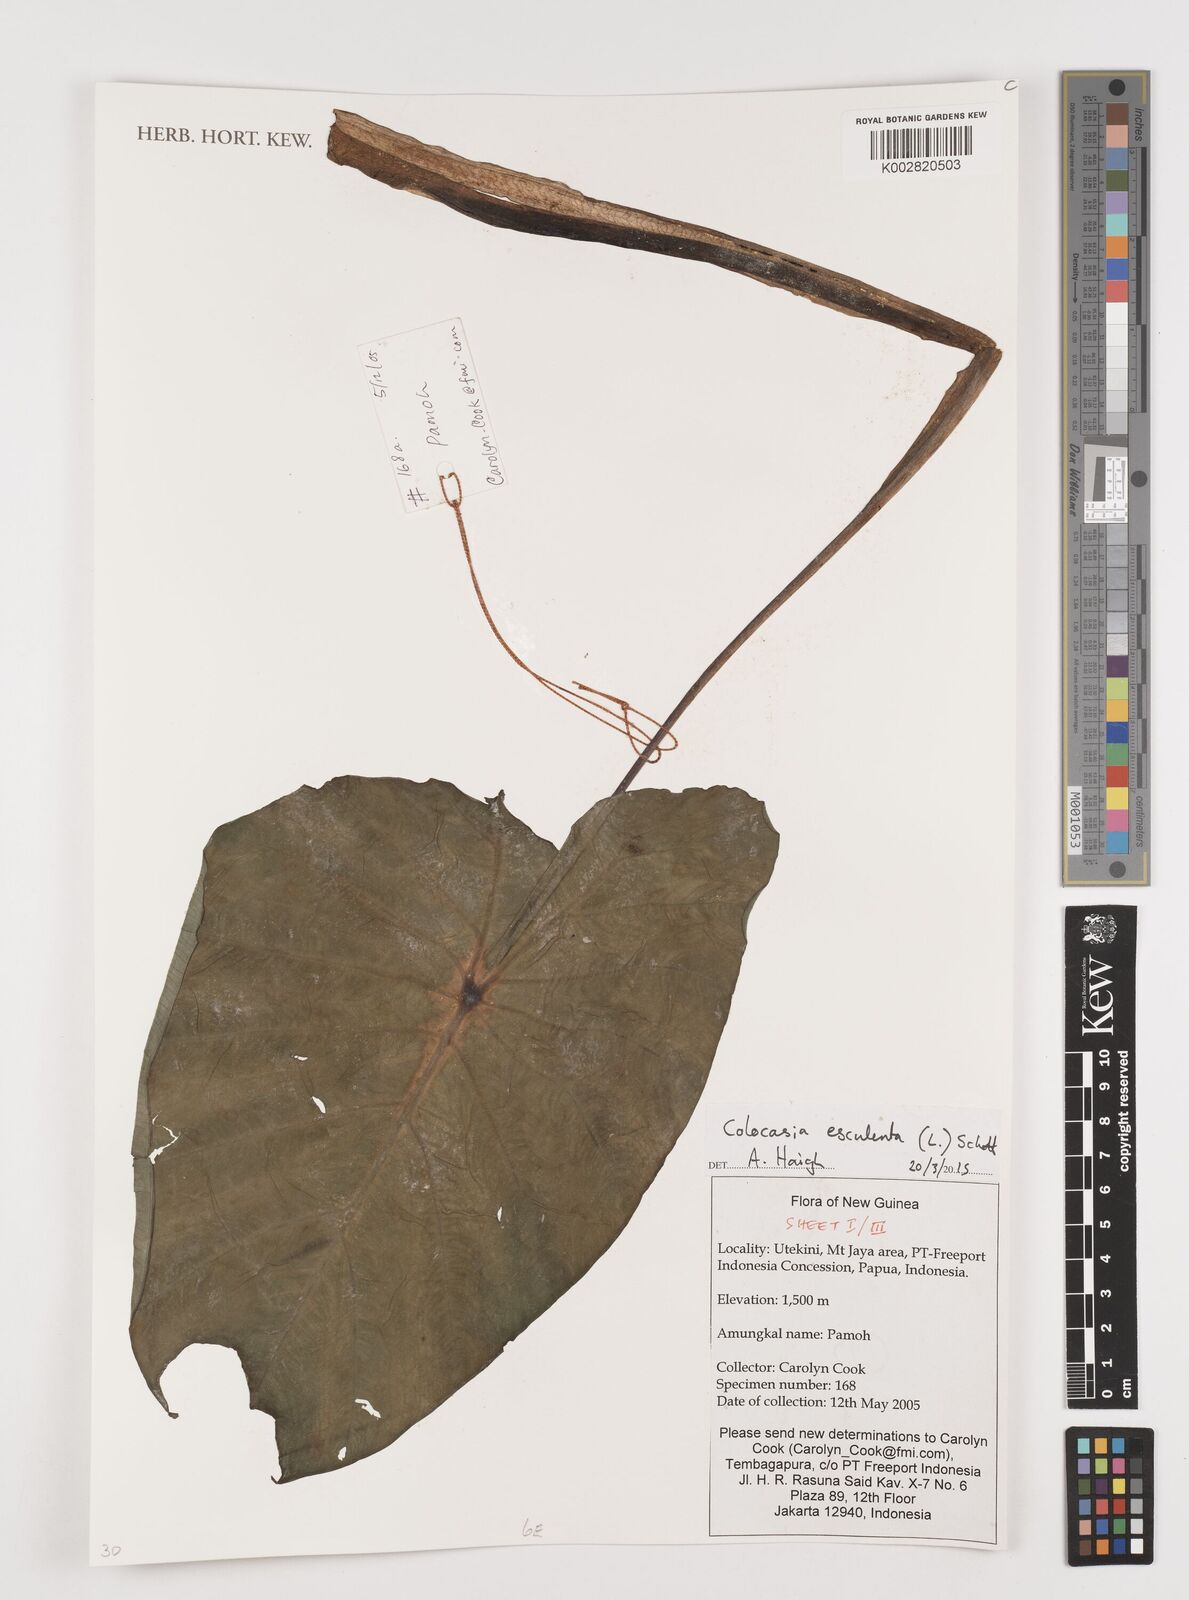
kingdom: Plantae
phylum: Tracheophyta
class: Liliopsida
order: Alismatales
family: Araceae
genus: Colocasia
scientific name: Colocasia esculenta
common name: Taro
